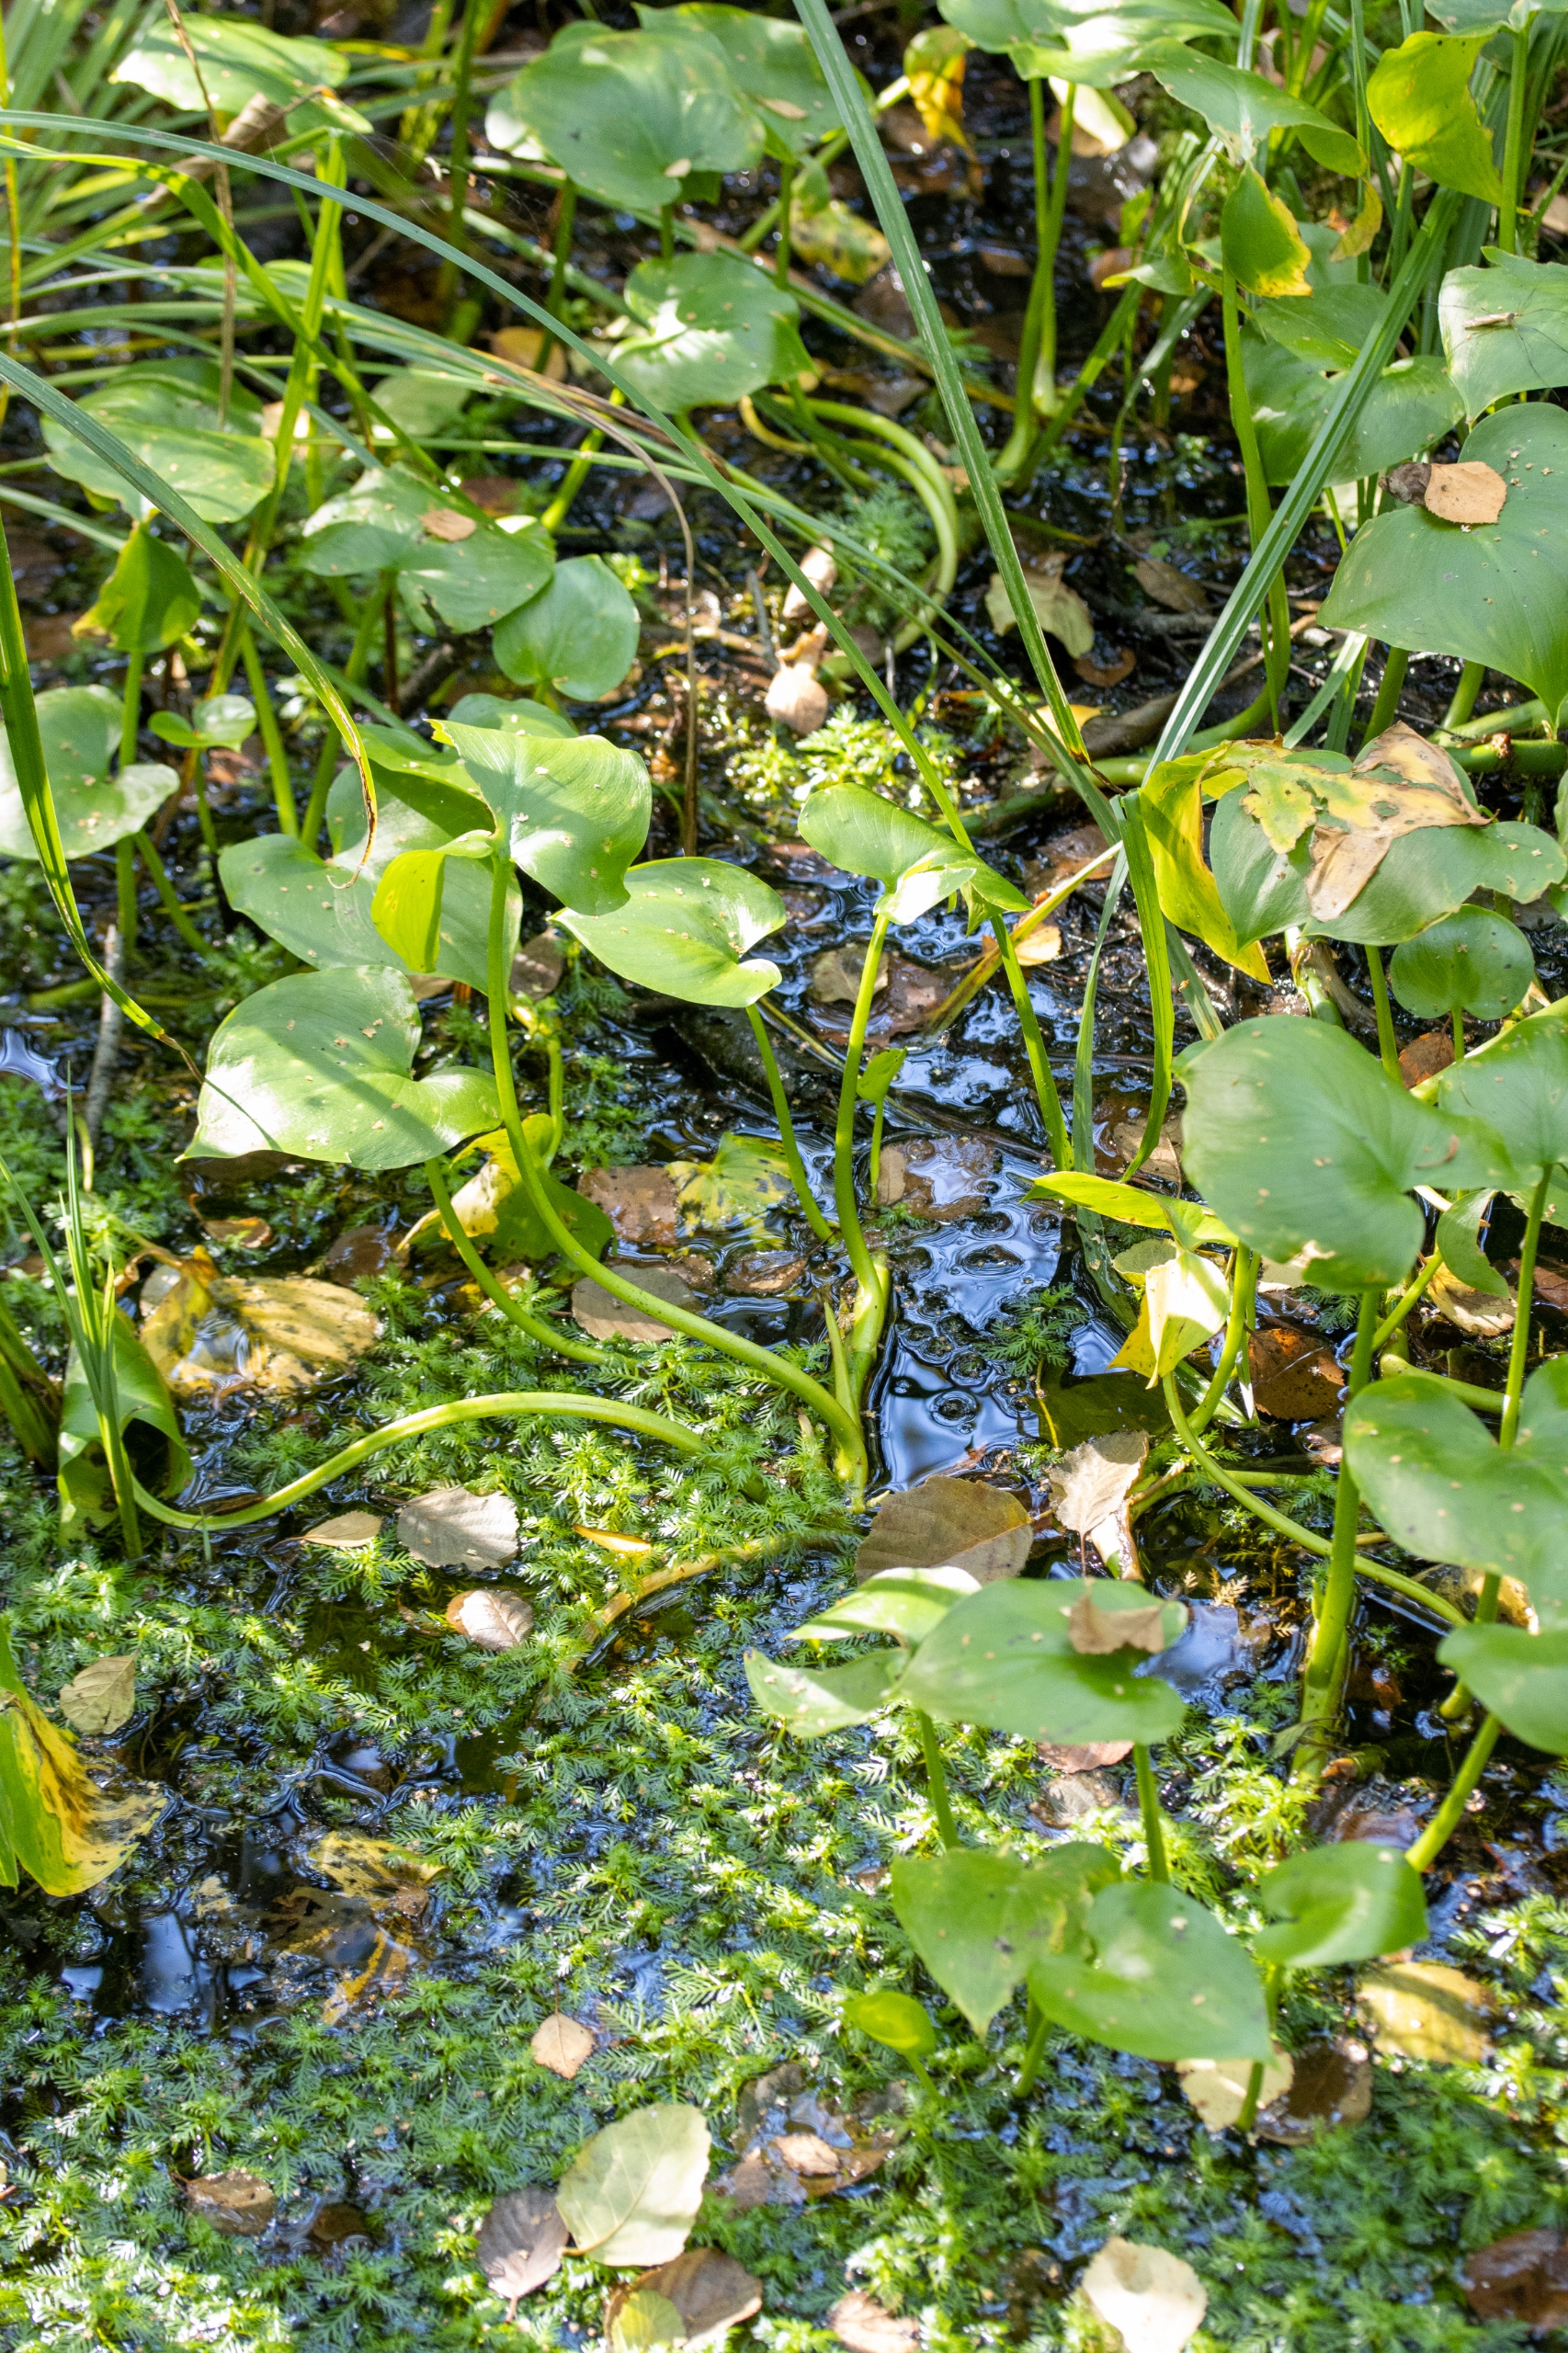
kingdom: Plantae
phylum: Tracheophyta
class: Liliopsida
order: Alismatales
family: Araceae
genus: Calla
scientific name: Calla palustris
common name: Kærmysse
